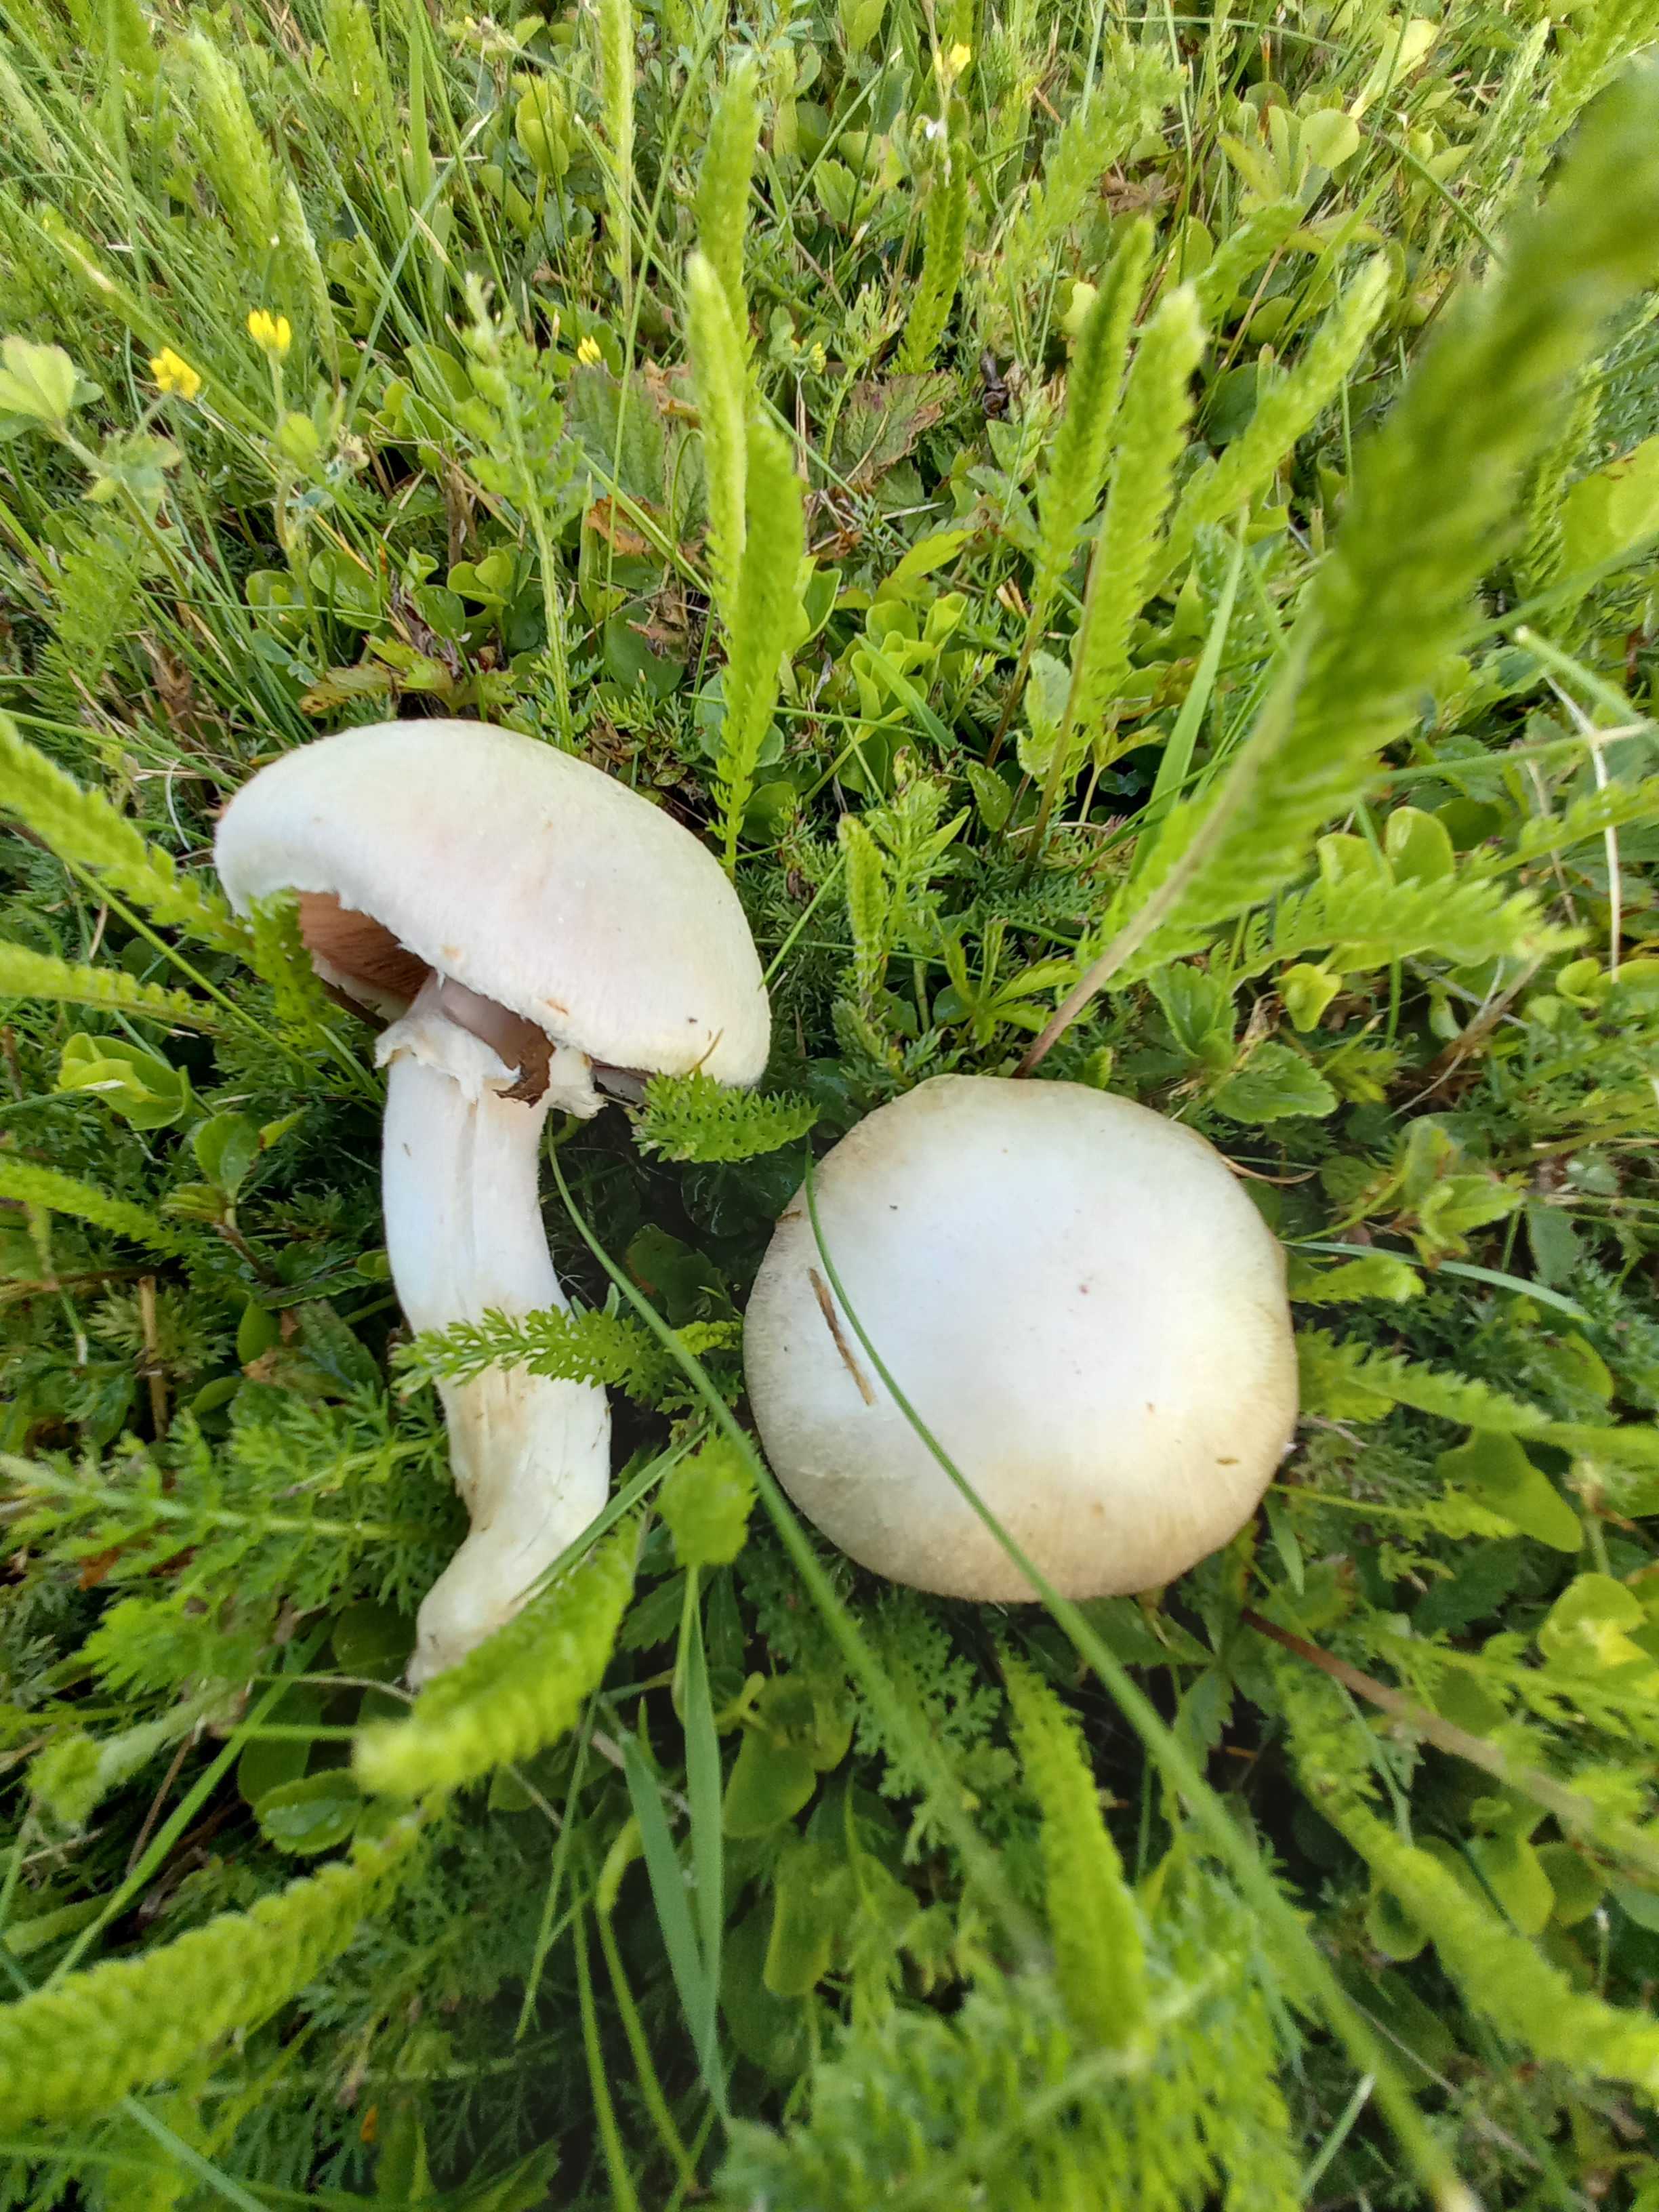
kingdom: Fungi
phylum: Basidiomycota
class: Agaricomycetes
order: Agaricales
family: Agaricaceae
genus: Agaricus
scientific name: Agaricus campestris
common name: mark-champignon
